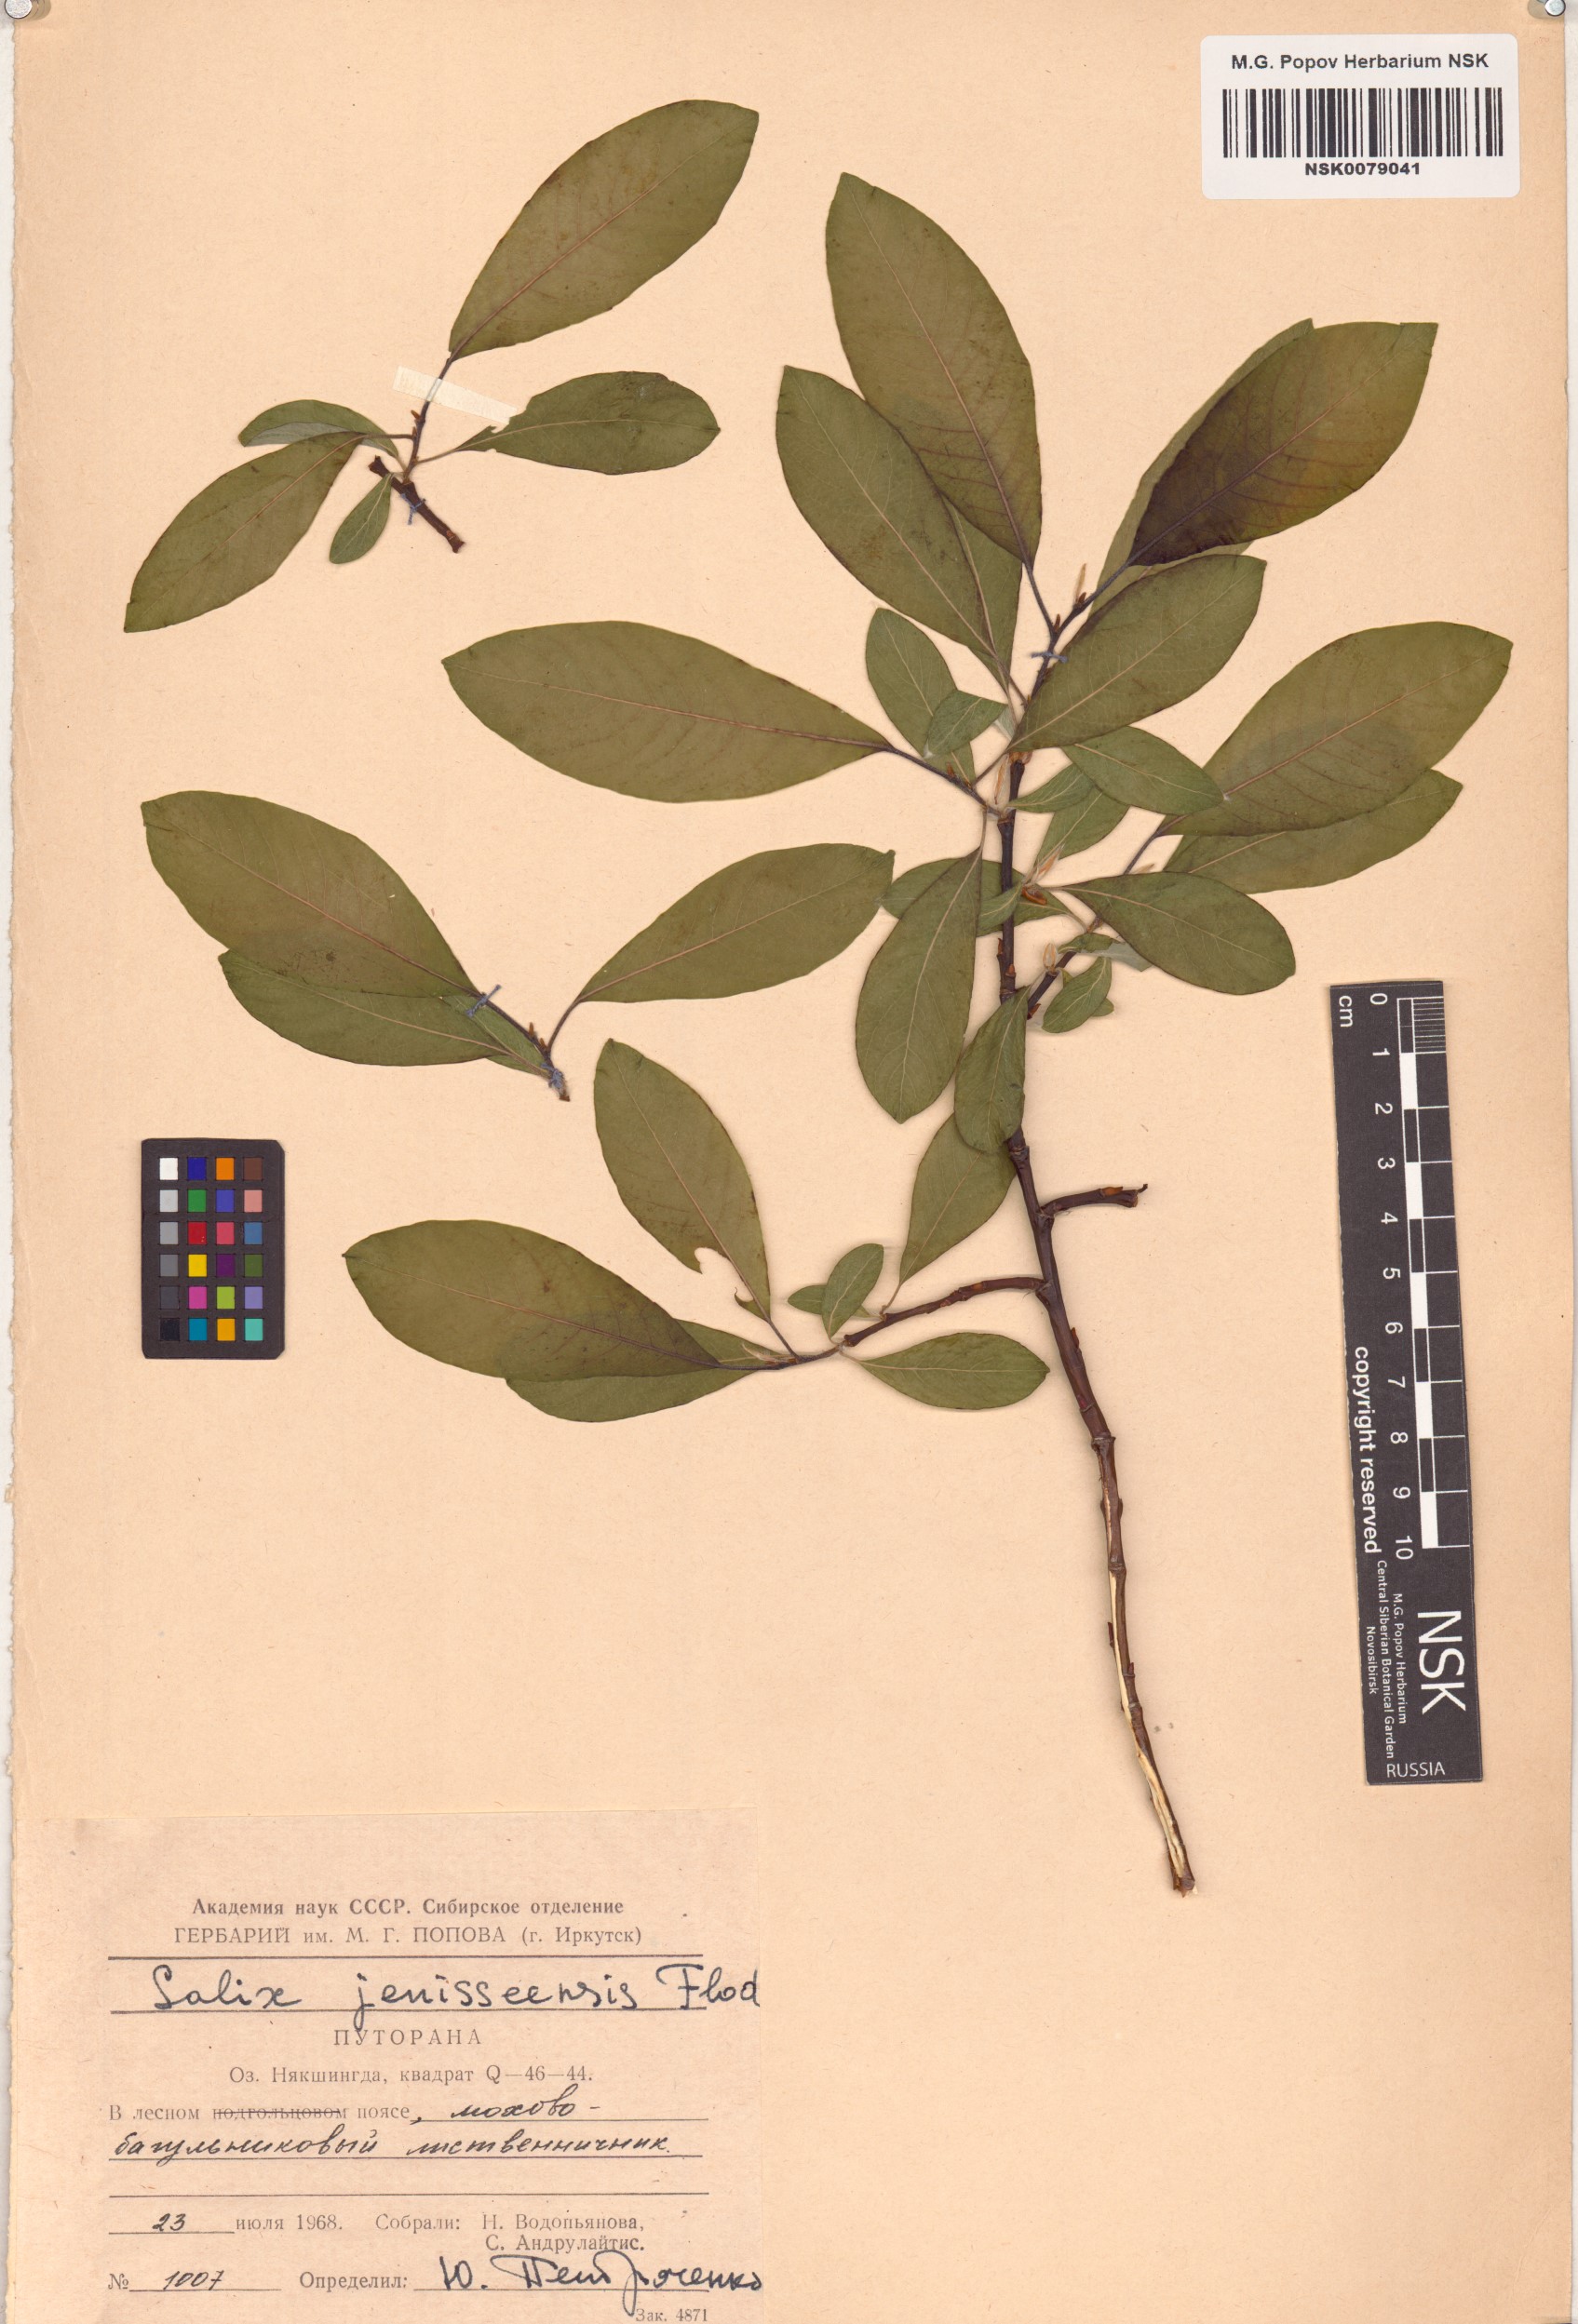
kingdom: Plantae
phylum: Tracheophyta
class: Magnoliopsida
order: Malpighiales
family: Salicaceae
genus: Salix
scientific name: Salix jenisseensis
